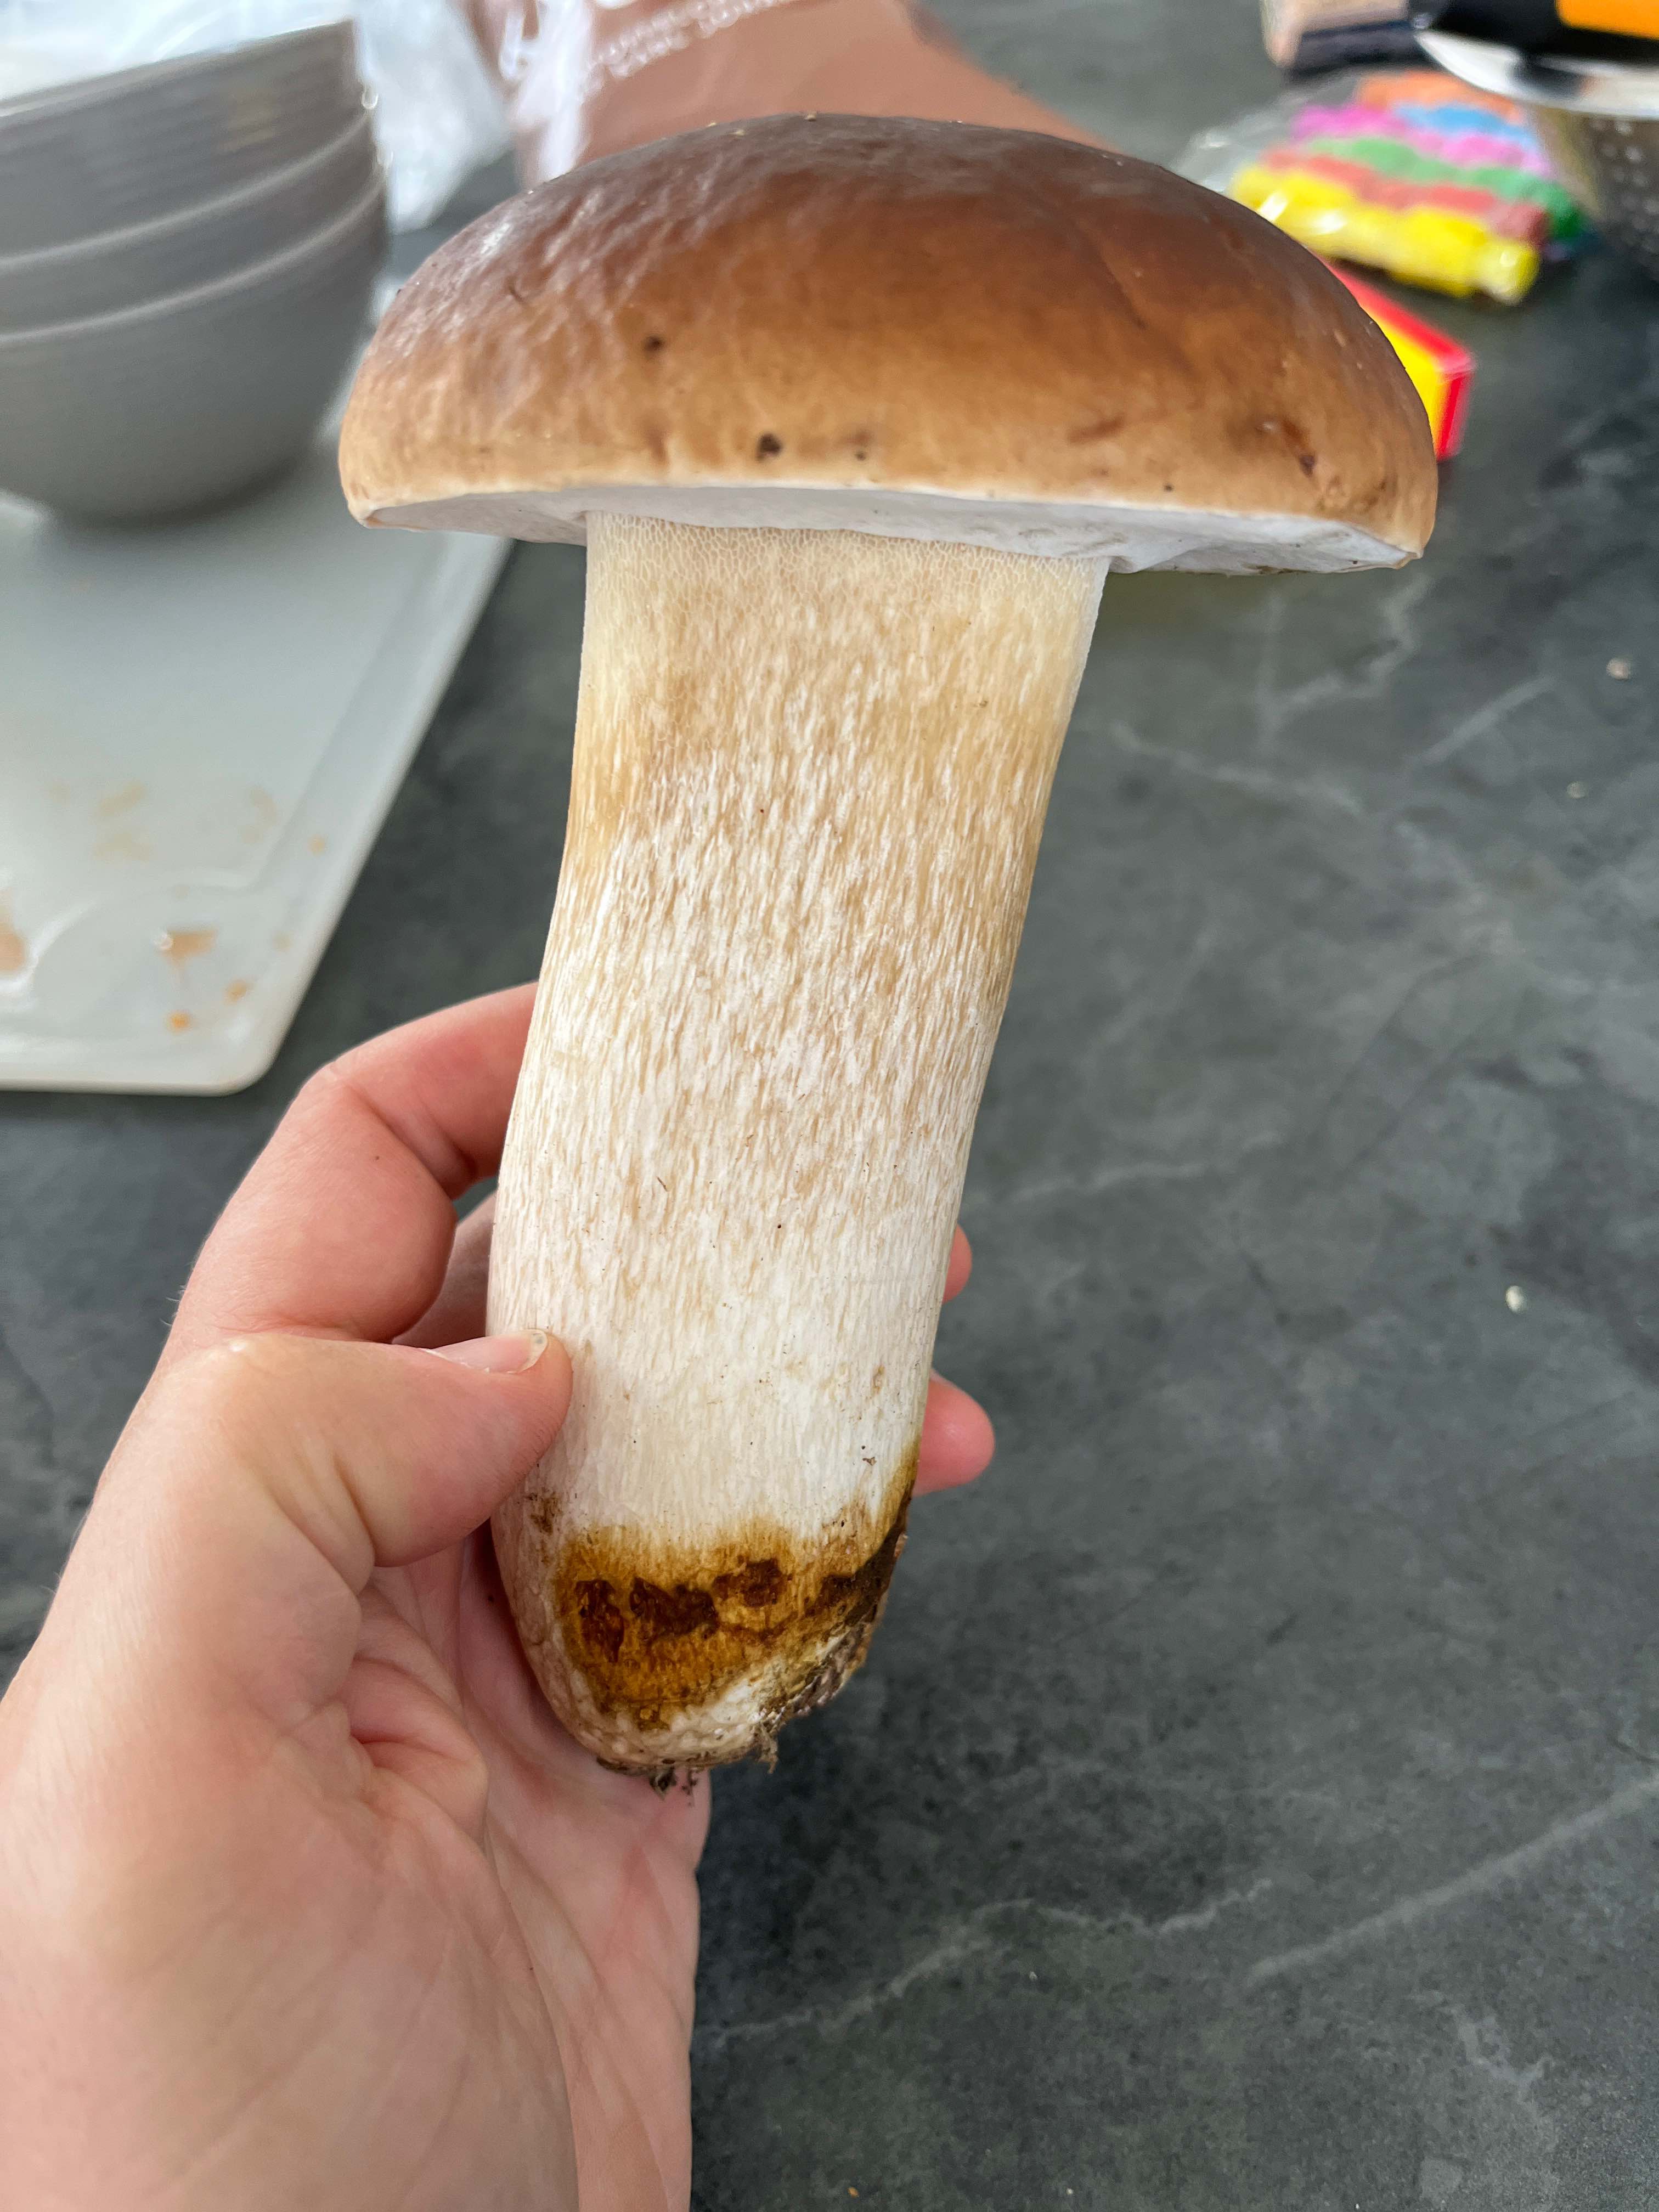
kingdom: Fungi
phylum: Basidiomycota
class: Agaricomycetes
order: Boletales
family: Boletaceae
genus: Boletus
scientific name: Boletus edulis
